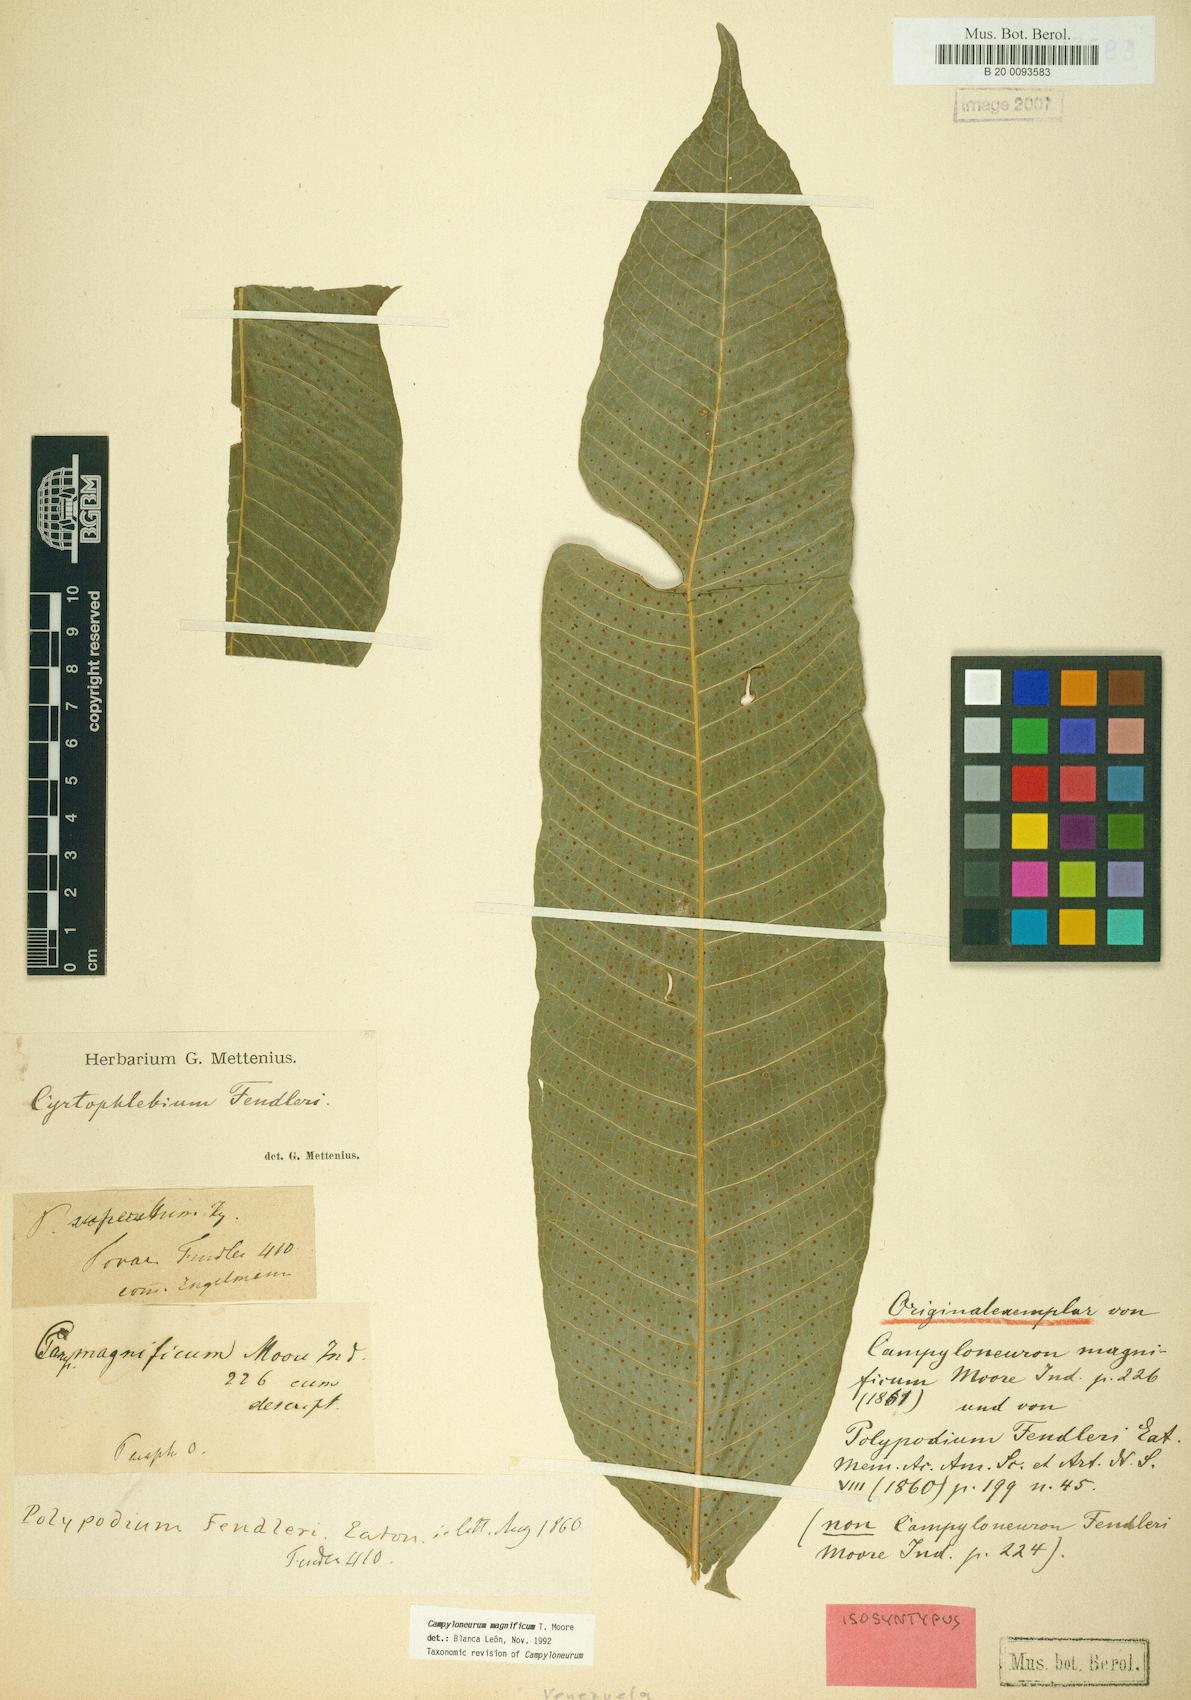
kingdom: Plantae
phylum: Tracheophyta
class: Polypodiopsida
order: Polypodiales
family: Polypodiaceae
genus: Campyloneurum
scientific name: Campyloneurum magnificum
